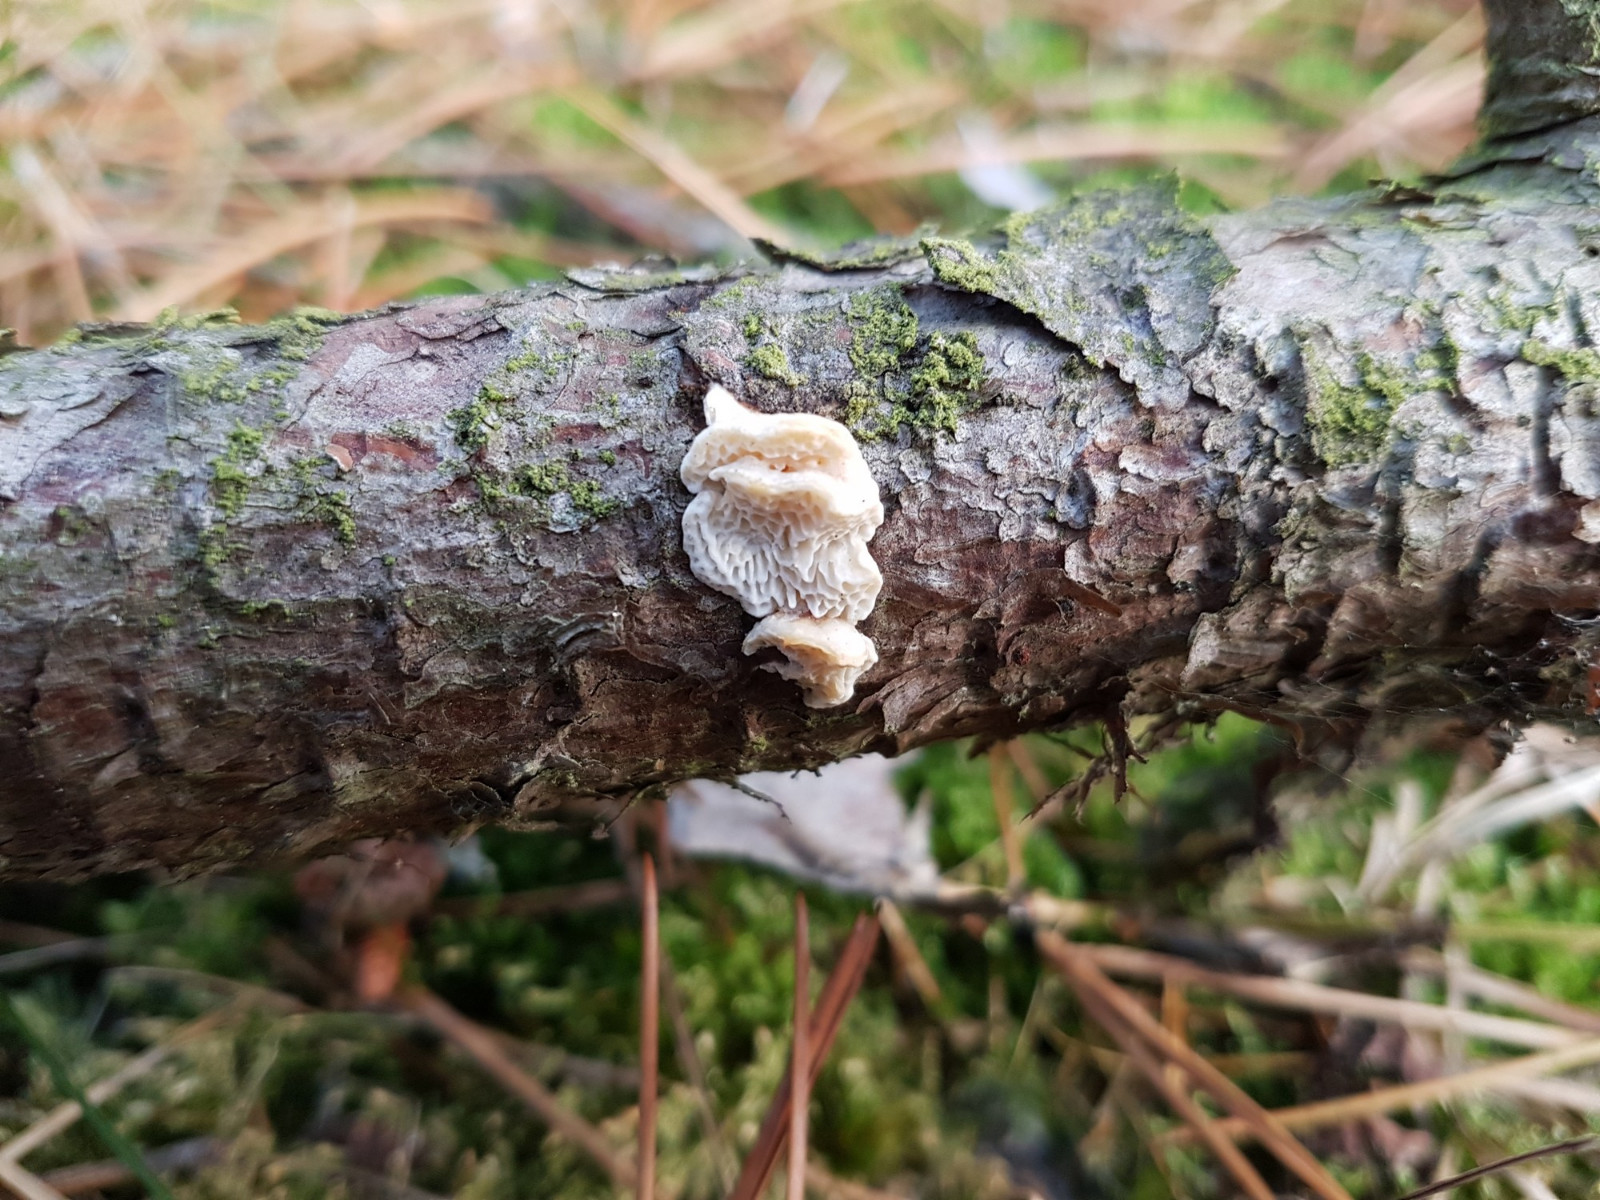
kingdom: Fungi
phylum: Basidiomycota
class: Agaricomycetes
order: Polyporales
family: Fomitopsidaceae
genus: Fomitopsis
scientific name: Fomitopsis
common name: fyrre-skiveporesvamp
